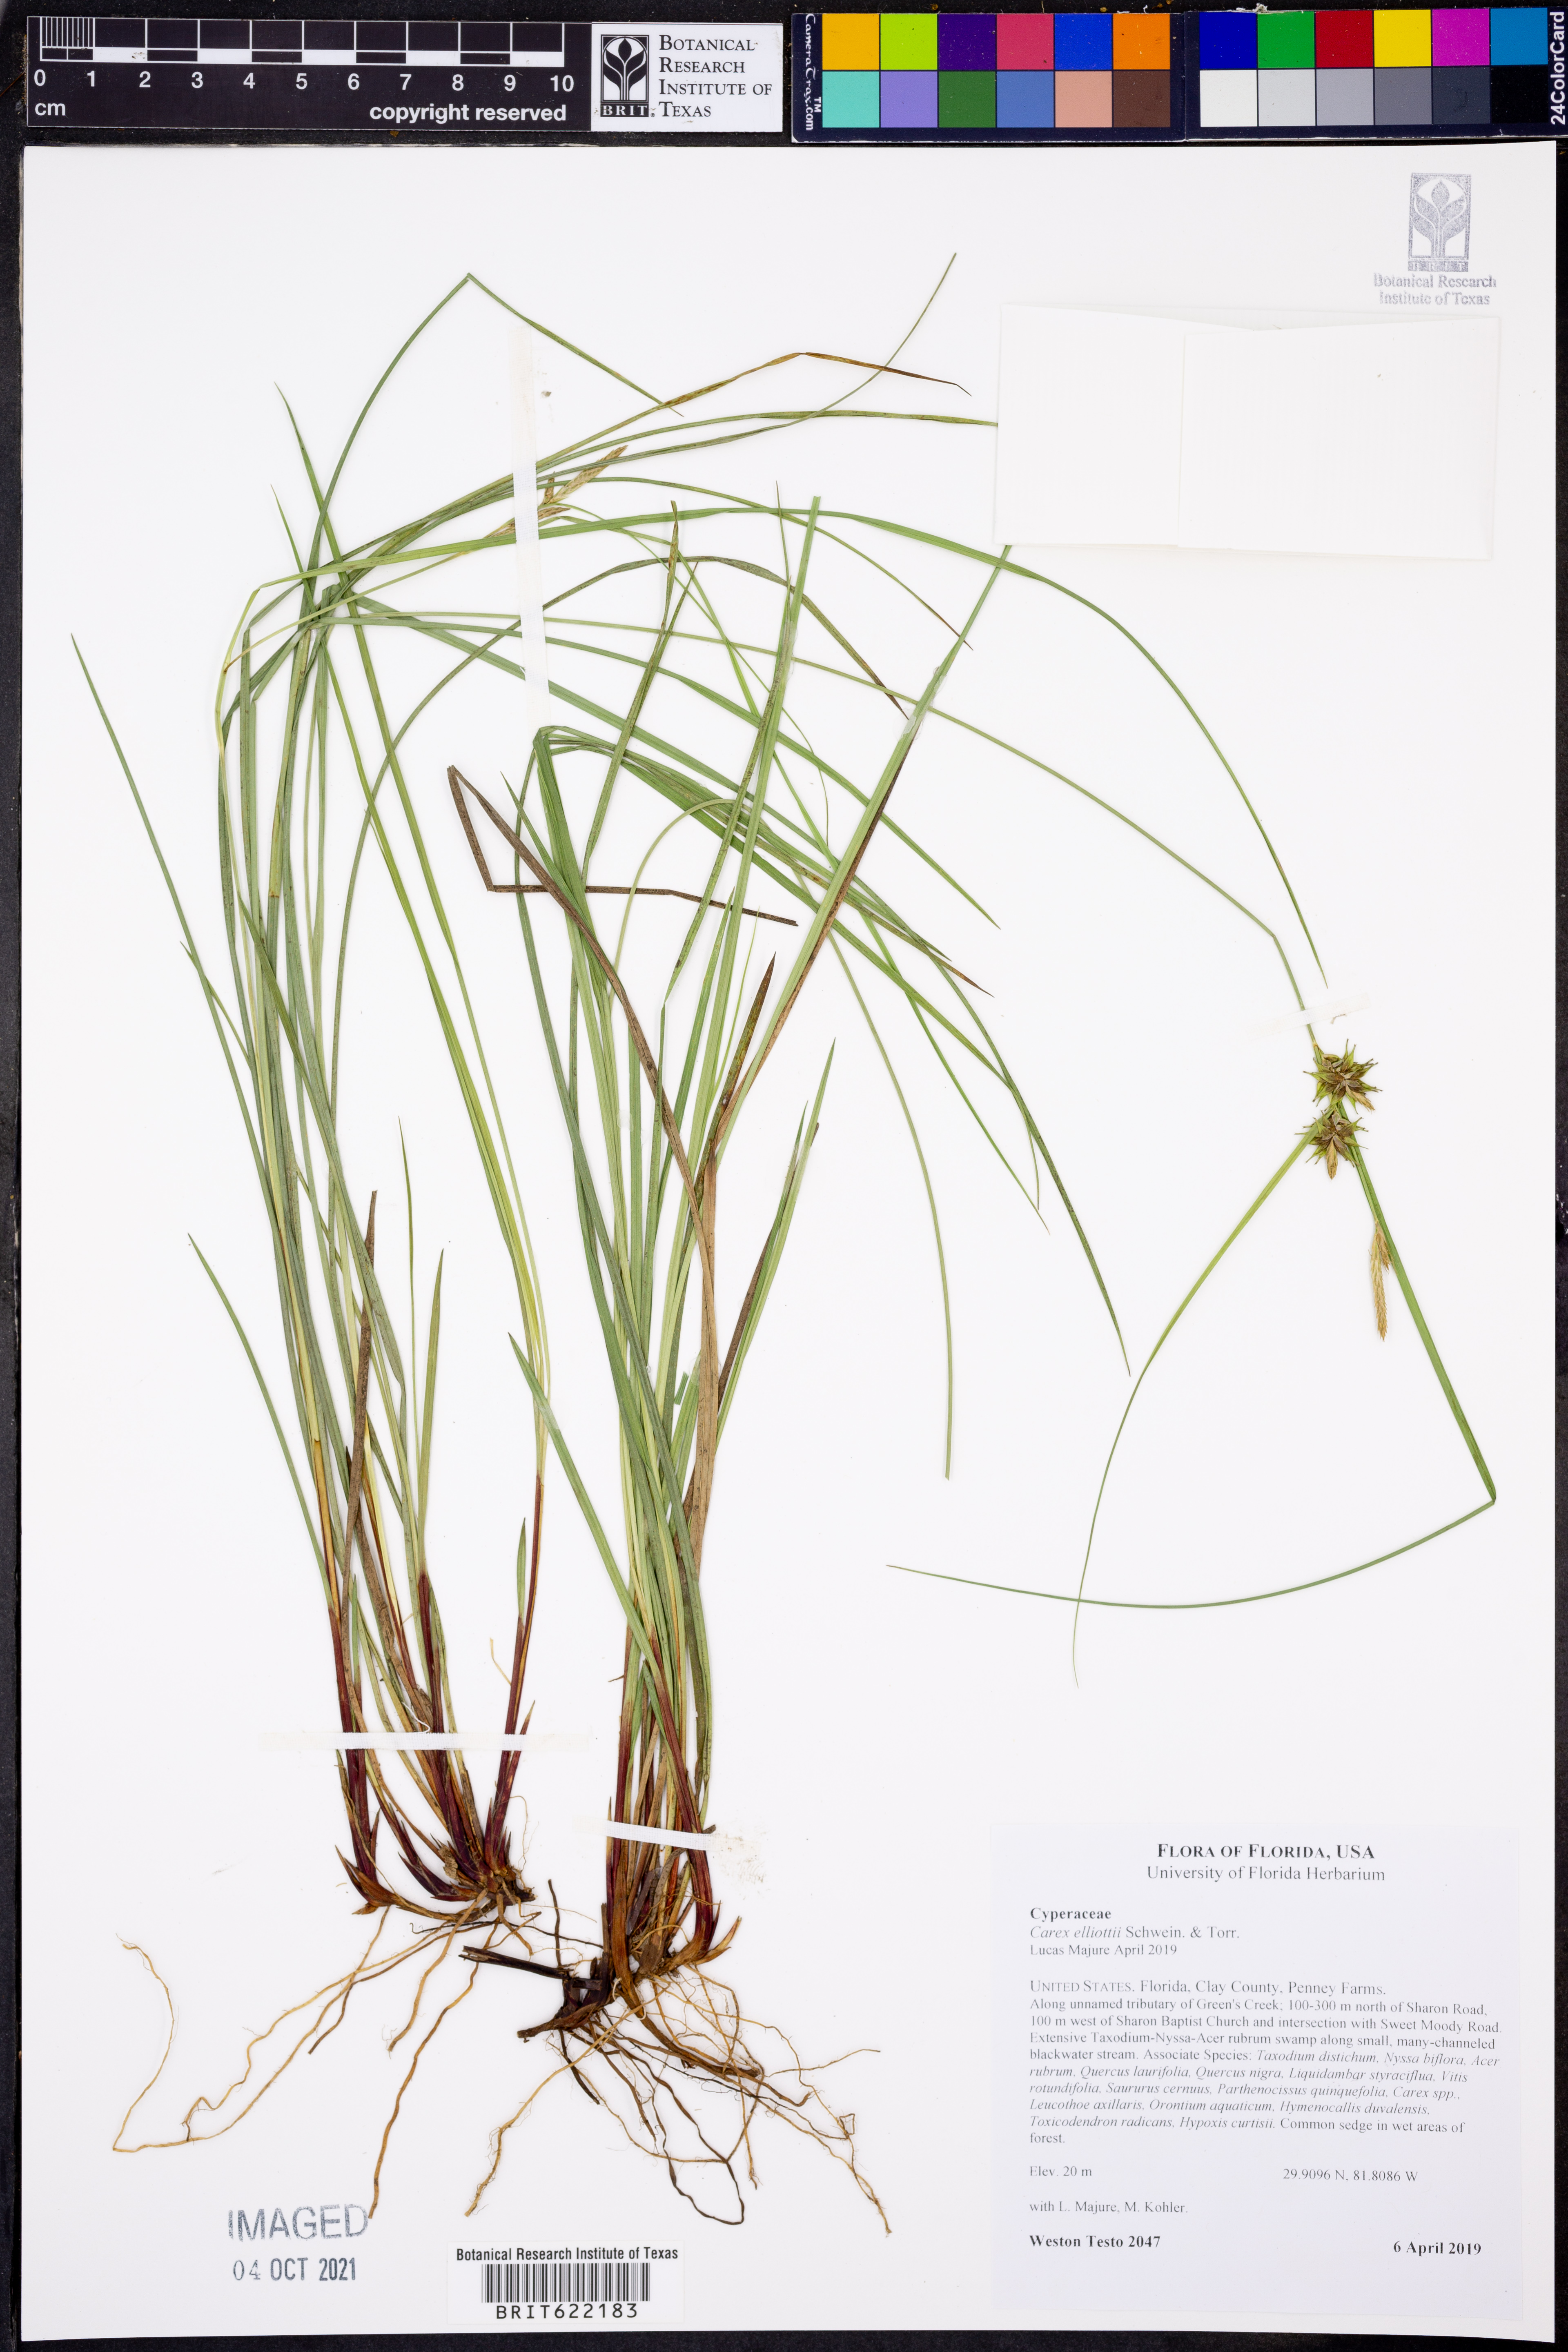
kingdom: Plantae
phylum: Tracheophyta
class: Liliopsida
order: Poales
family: Cyperaceae
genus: Carex
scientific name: Carex elliottii
